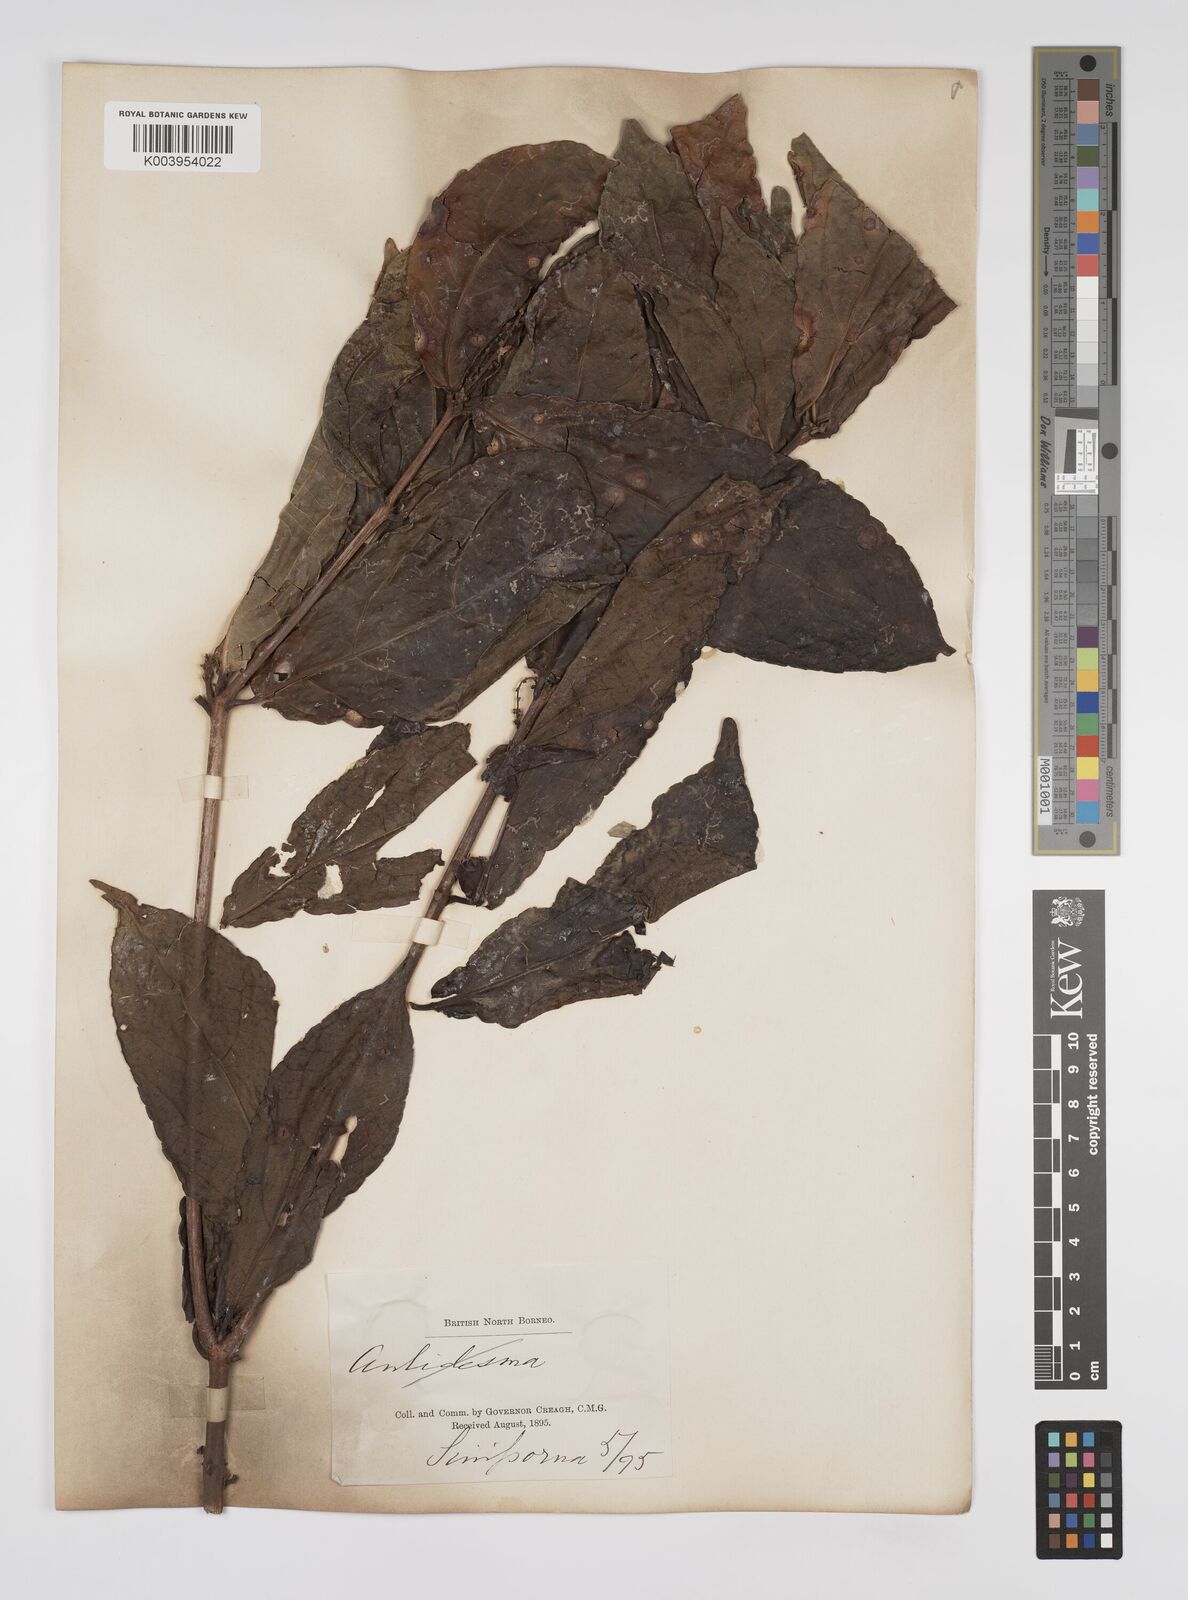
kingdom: Plantae
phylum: Tracheophyta
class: Magnoliopsida
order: Malpighiales
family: Euphorbiaceae
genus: Alchornea
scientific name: Alchornea rugosa
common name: Alchorntree
